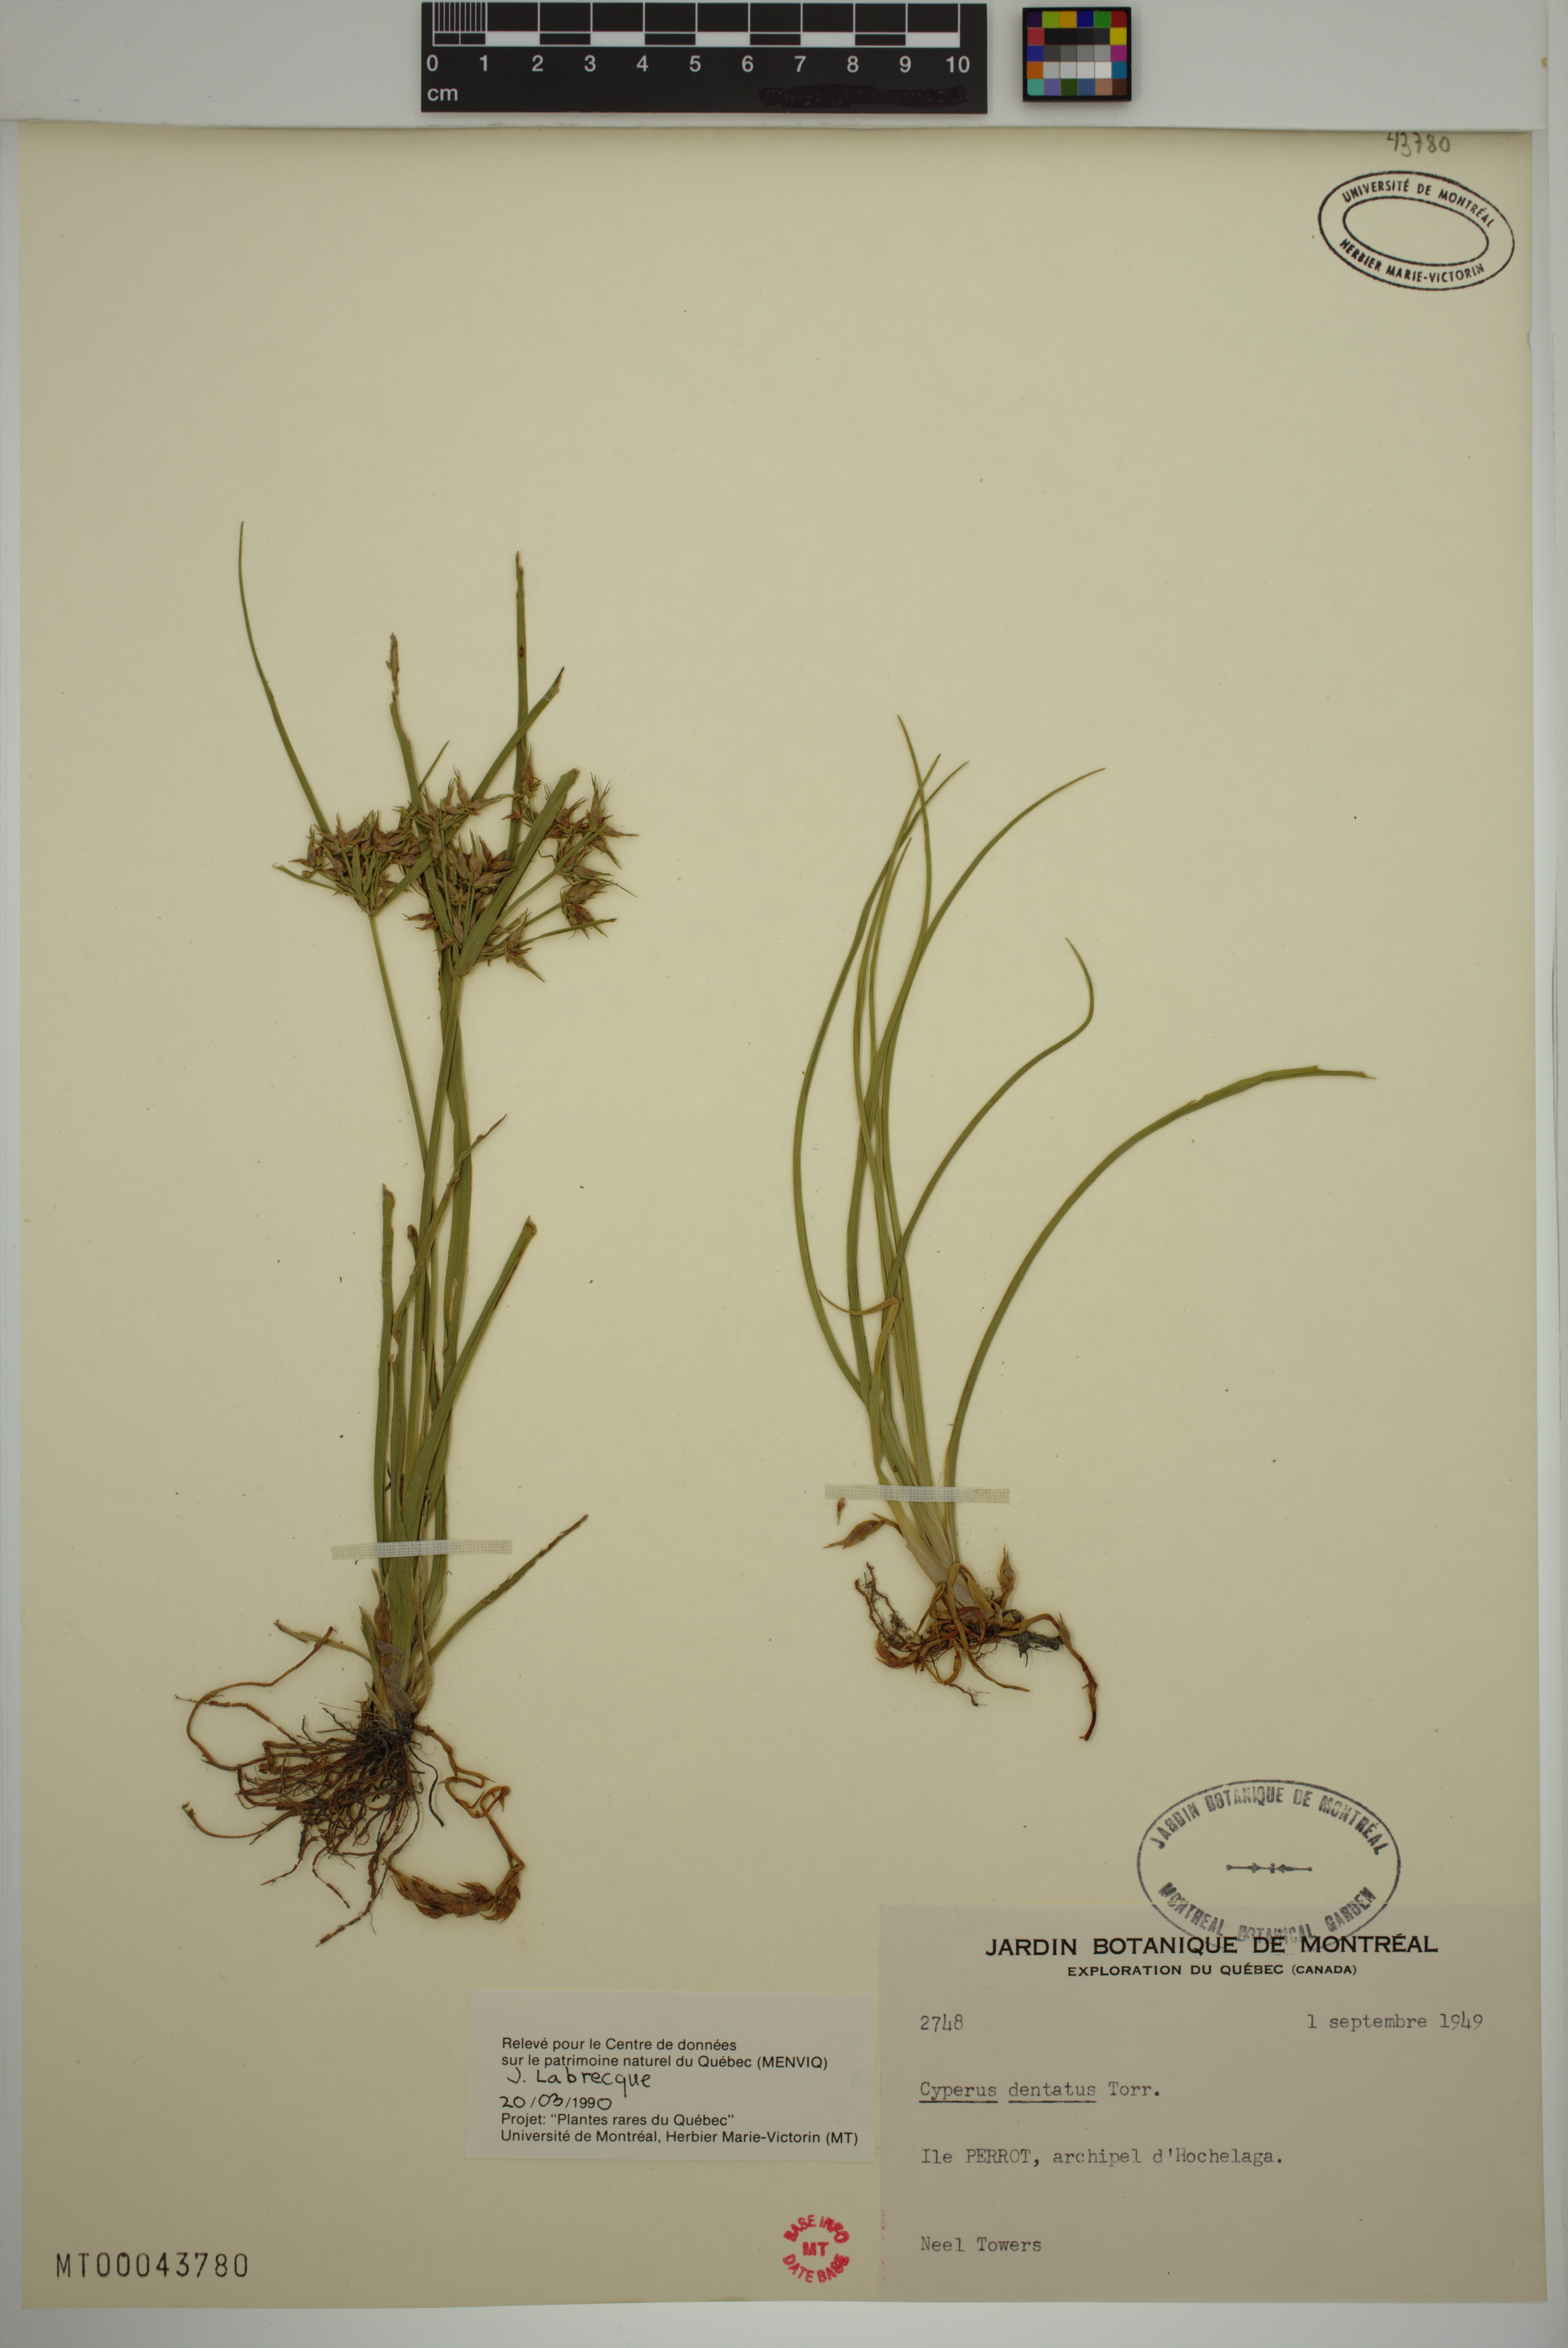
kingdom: Plantae
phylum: Tracheophyta
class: Liliopsida
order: Poales
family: Cyperaceae
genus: Cyperus
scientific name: Cyperus dentatus
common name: Dentate umbrella sedge
